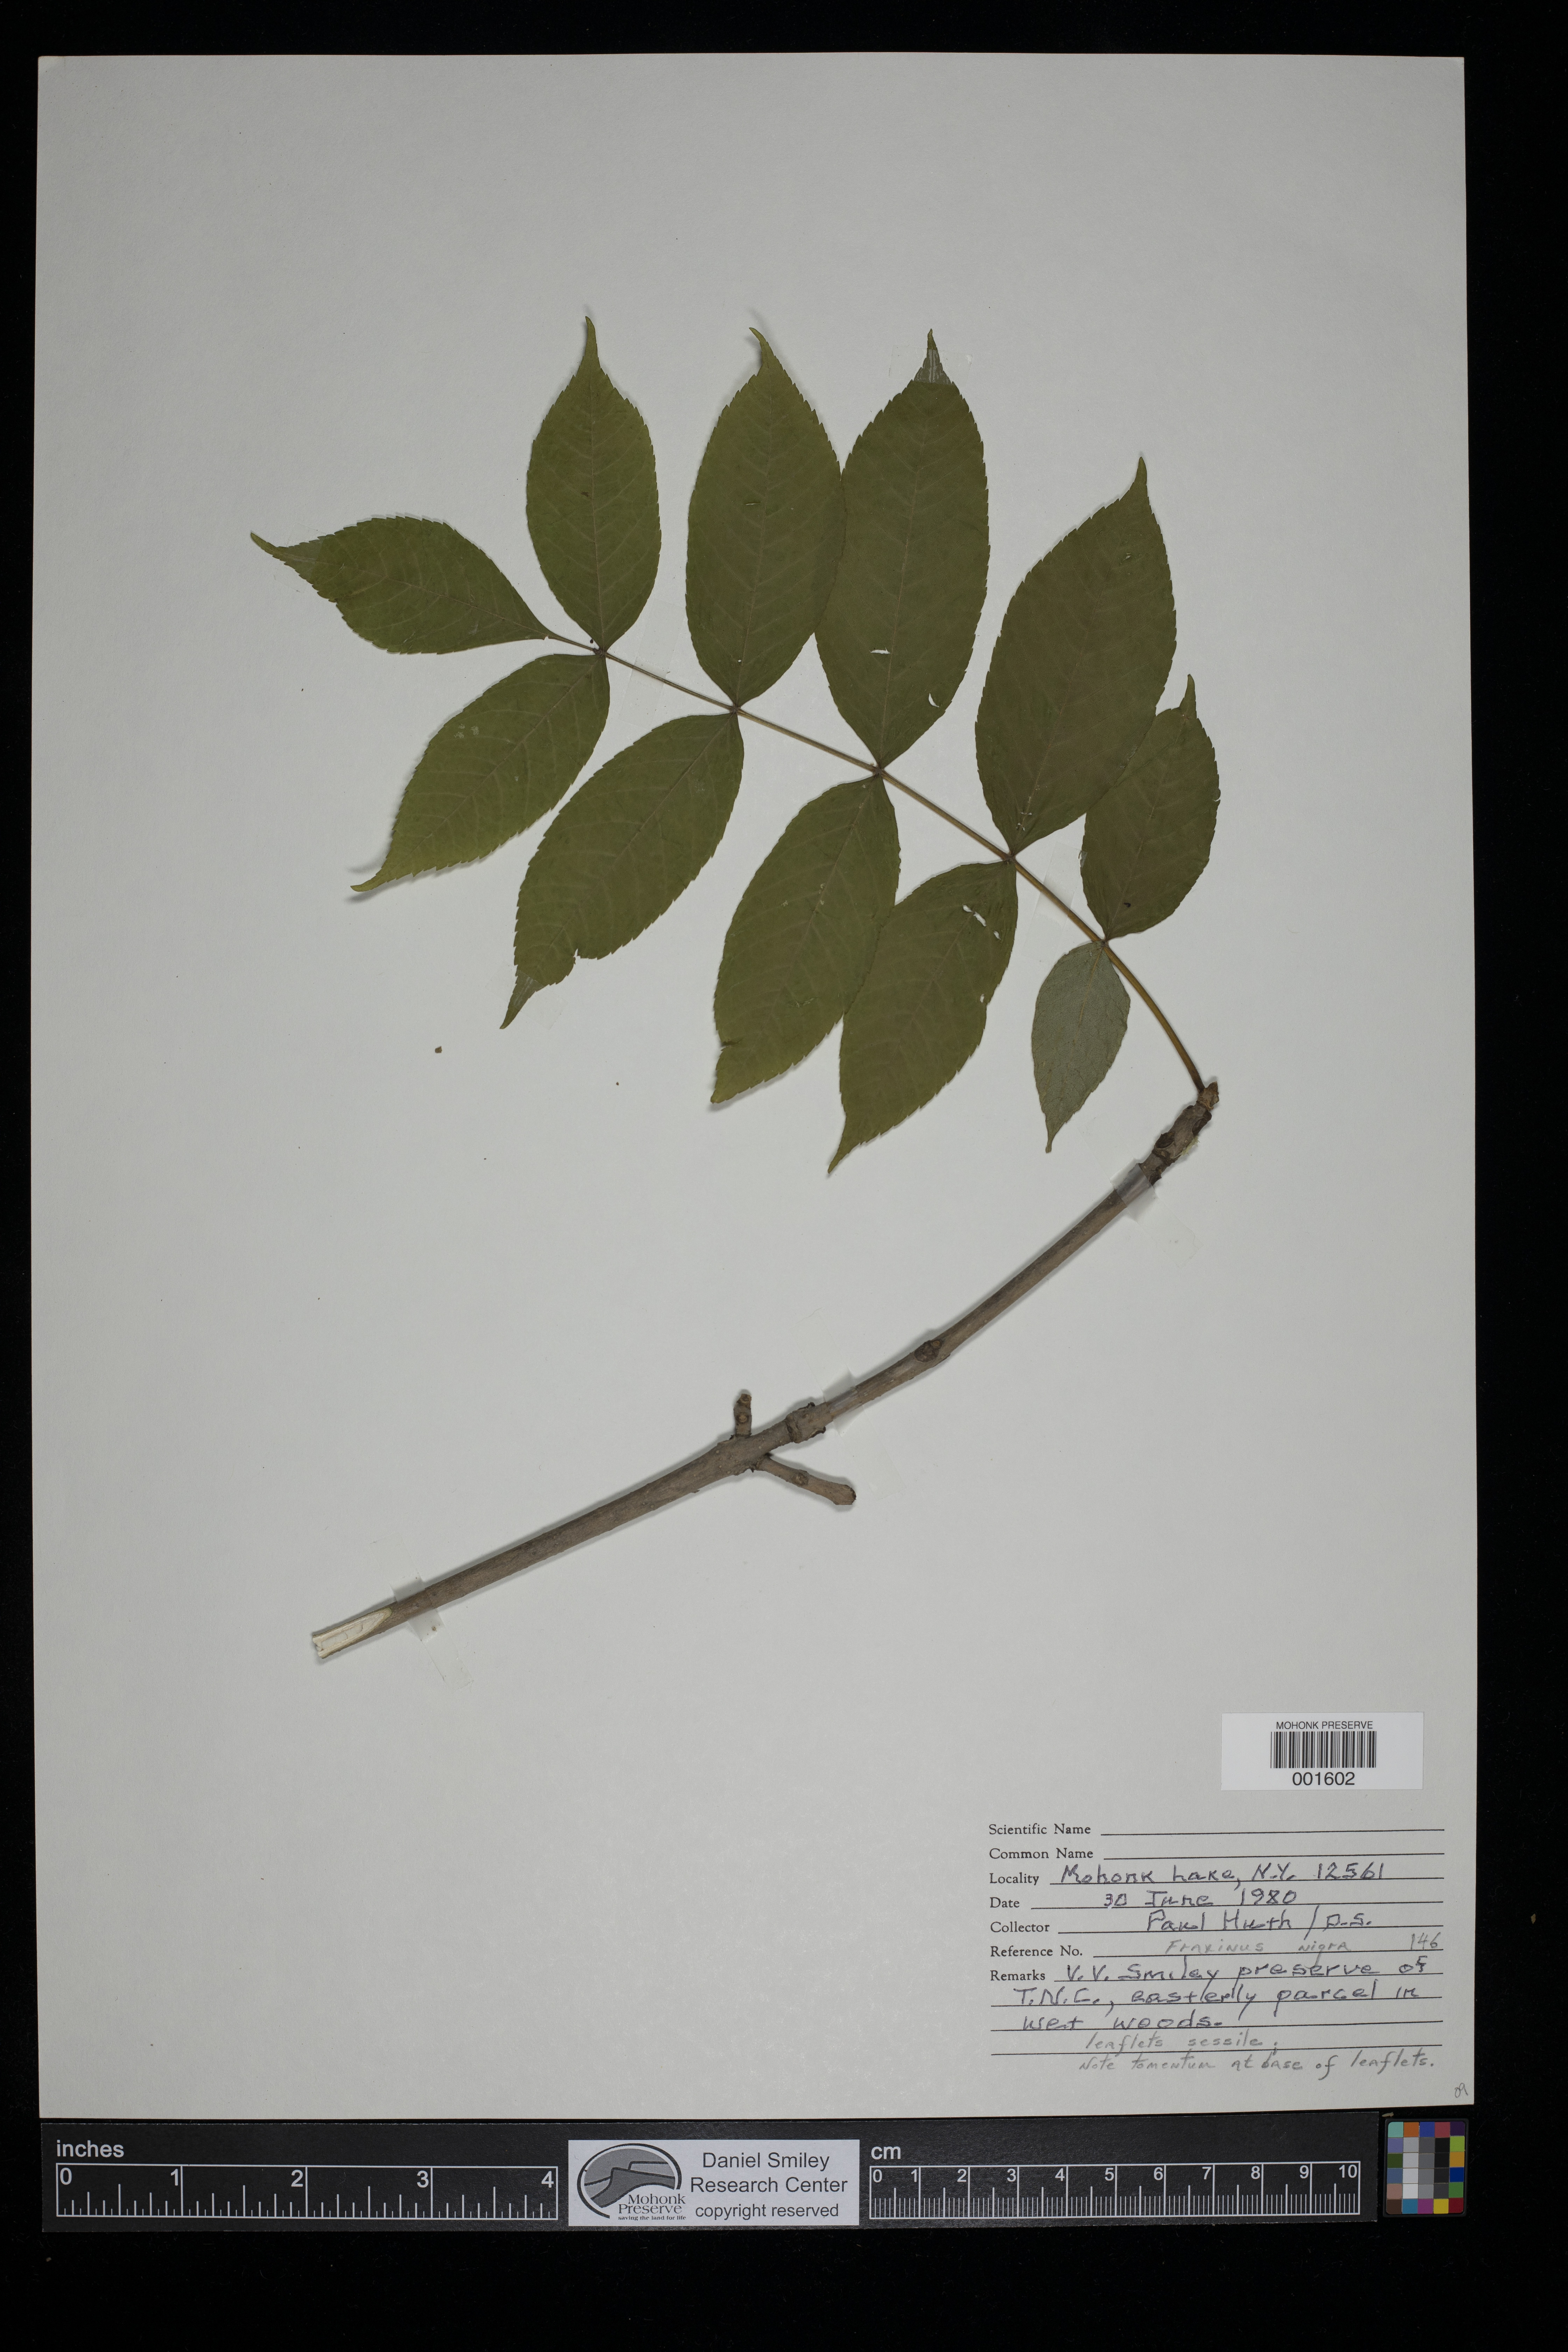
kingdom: Plantae
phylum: Tracheophyta
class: Magnoliopsida
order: Lamiales
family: Oleaceae
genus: Fraxinus
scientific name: Fraxinus nigra
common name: Black ash
